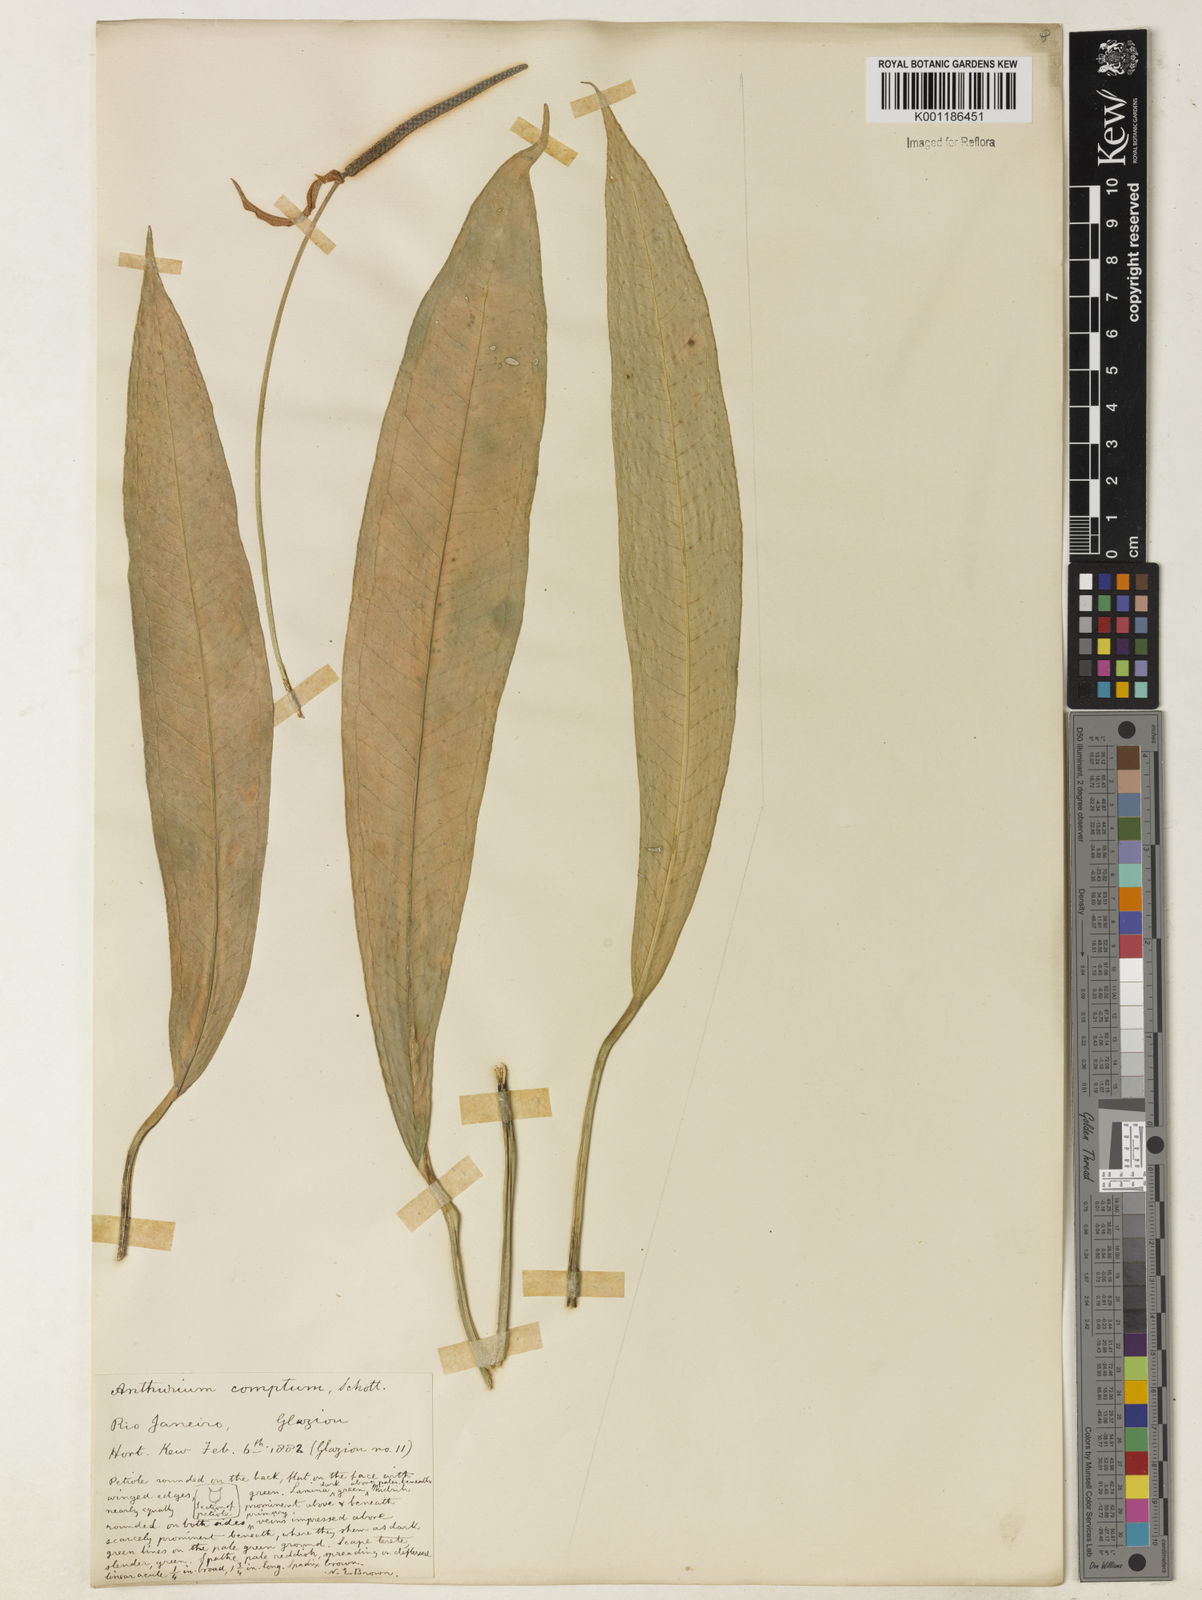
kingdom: Plantae
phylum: Tracheophyta
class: Liliopsida
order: Alismatales
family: Araceae
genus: Anthurium
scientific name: Anthurium comtum
